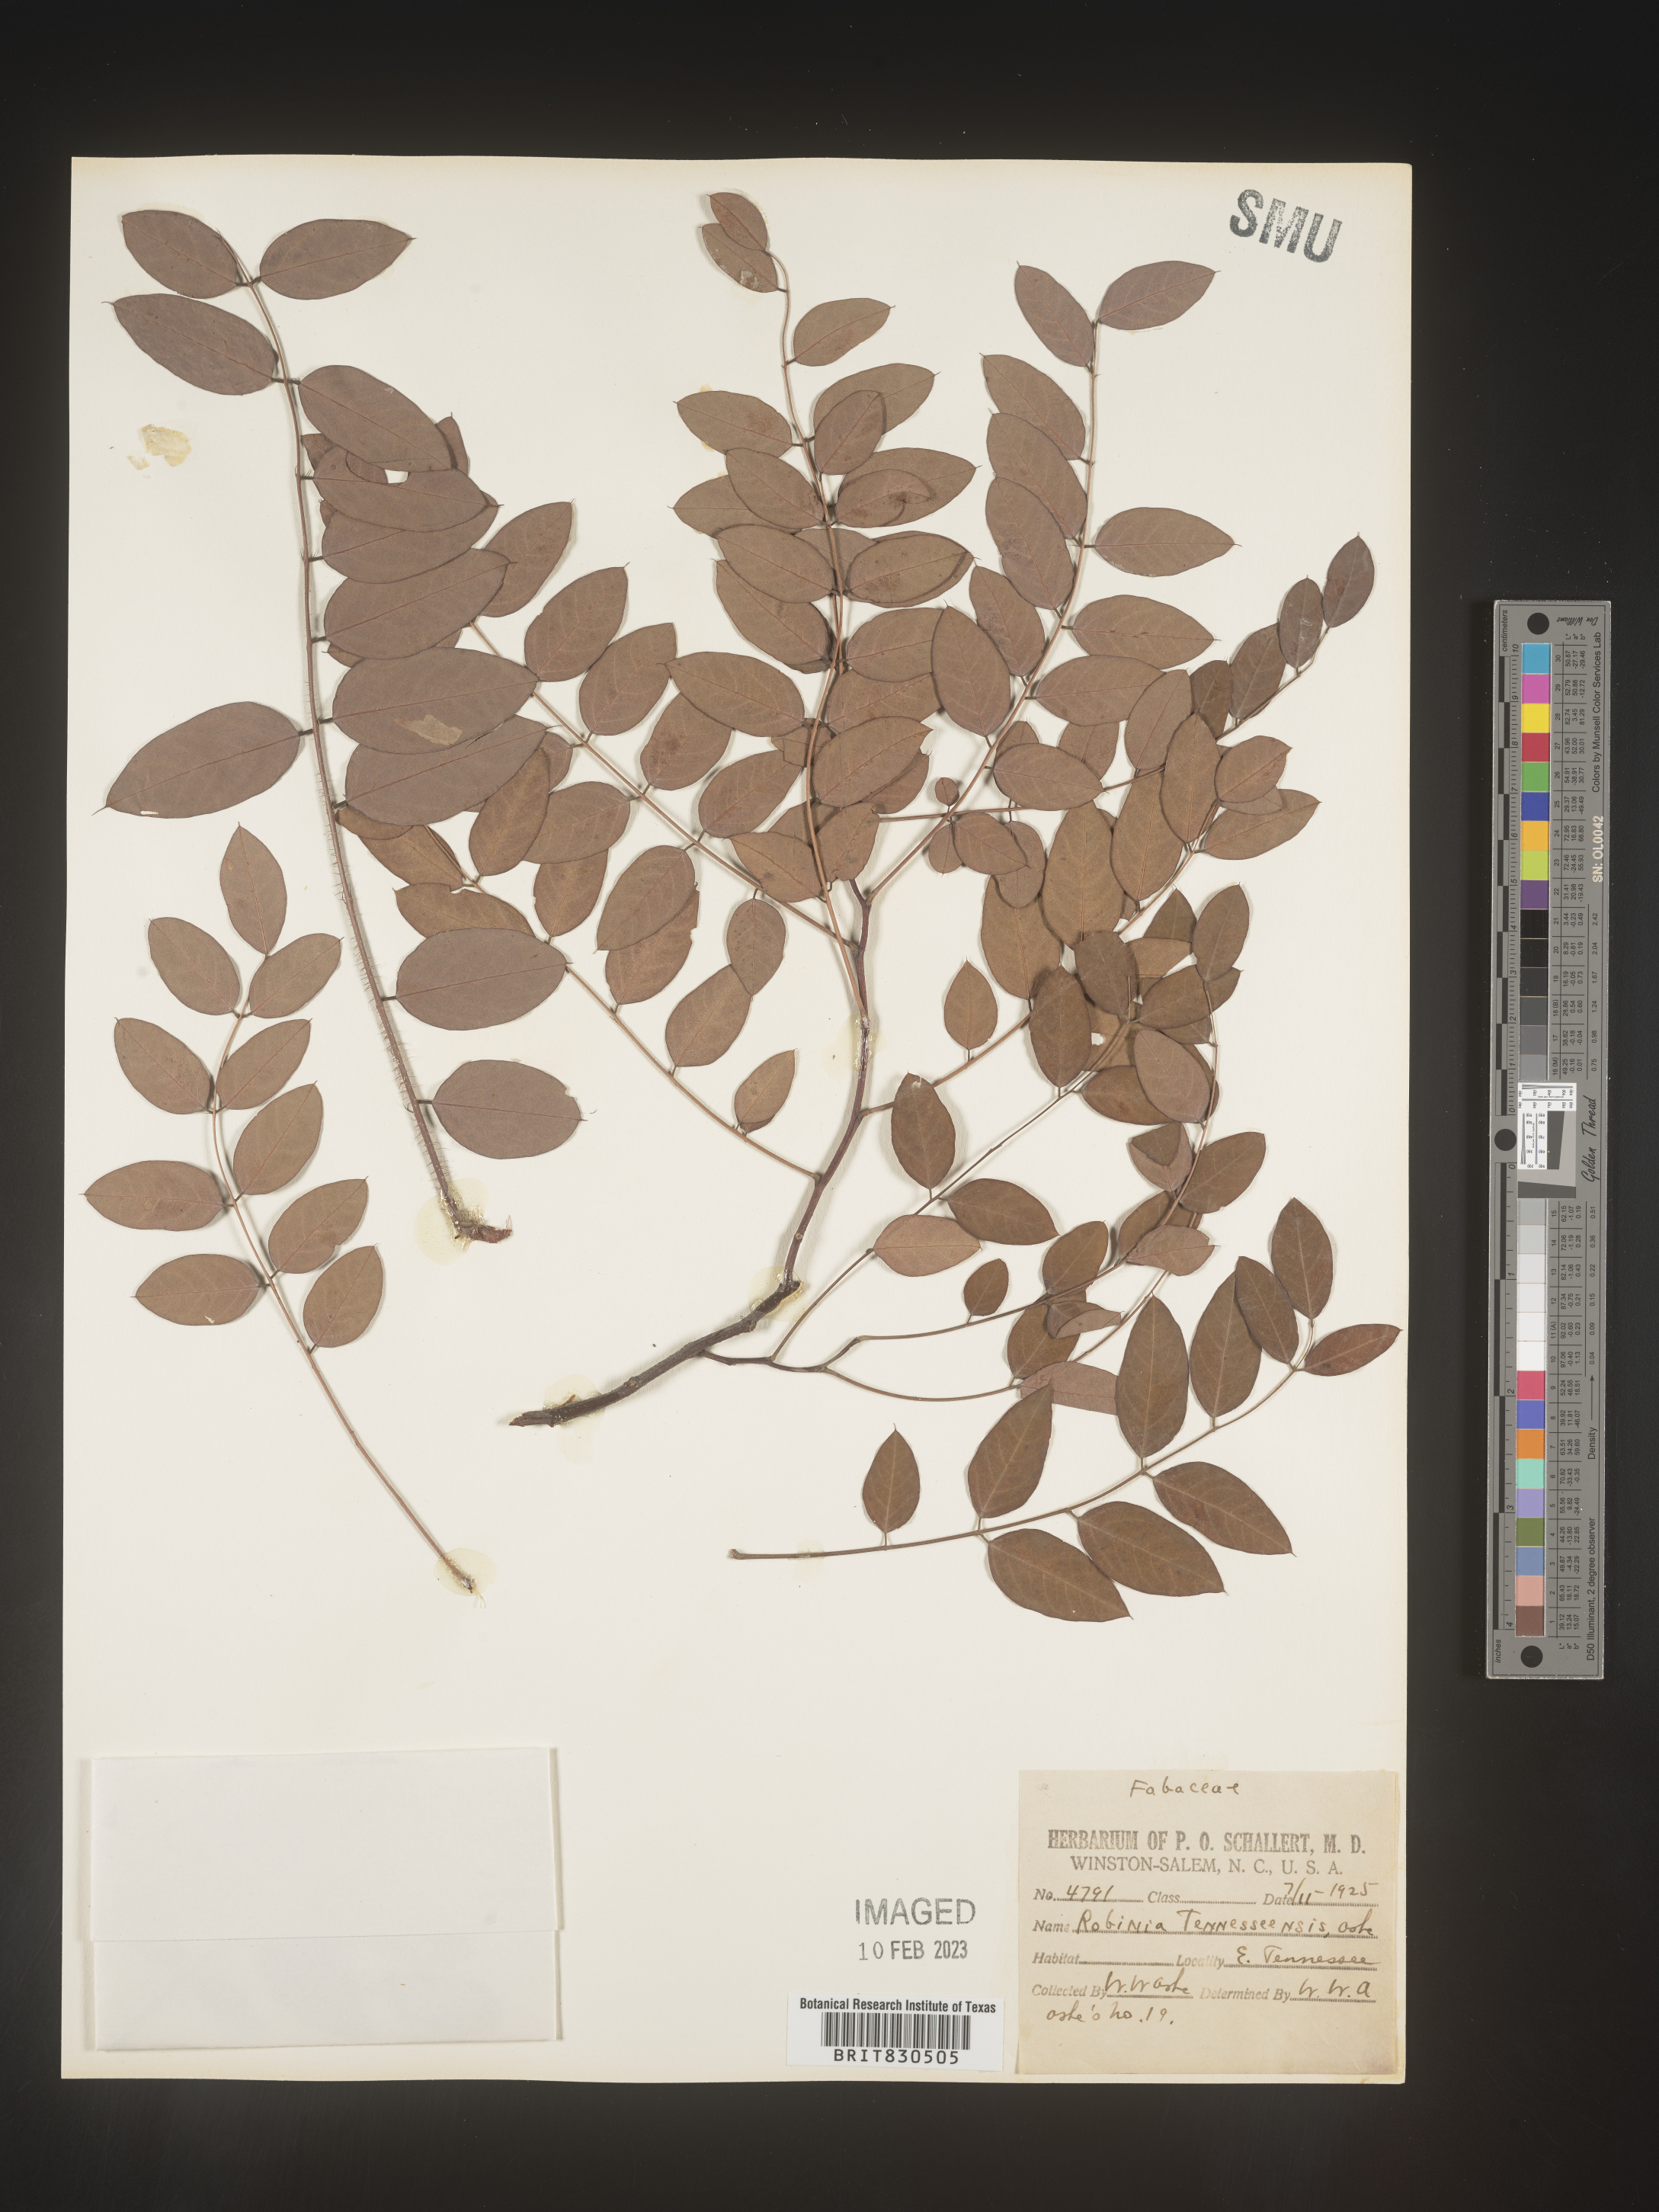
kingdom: Plantae
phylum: Tracheophyta
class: Magnoliopsida
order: Fabales
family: Fabaceae
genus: Robinia
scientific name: Robinia
